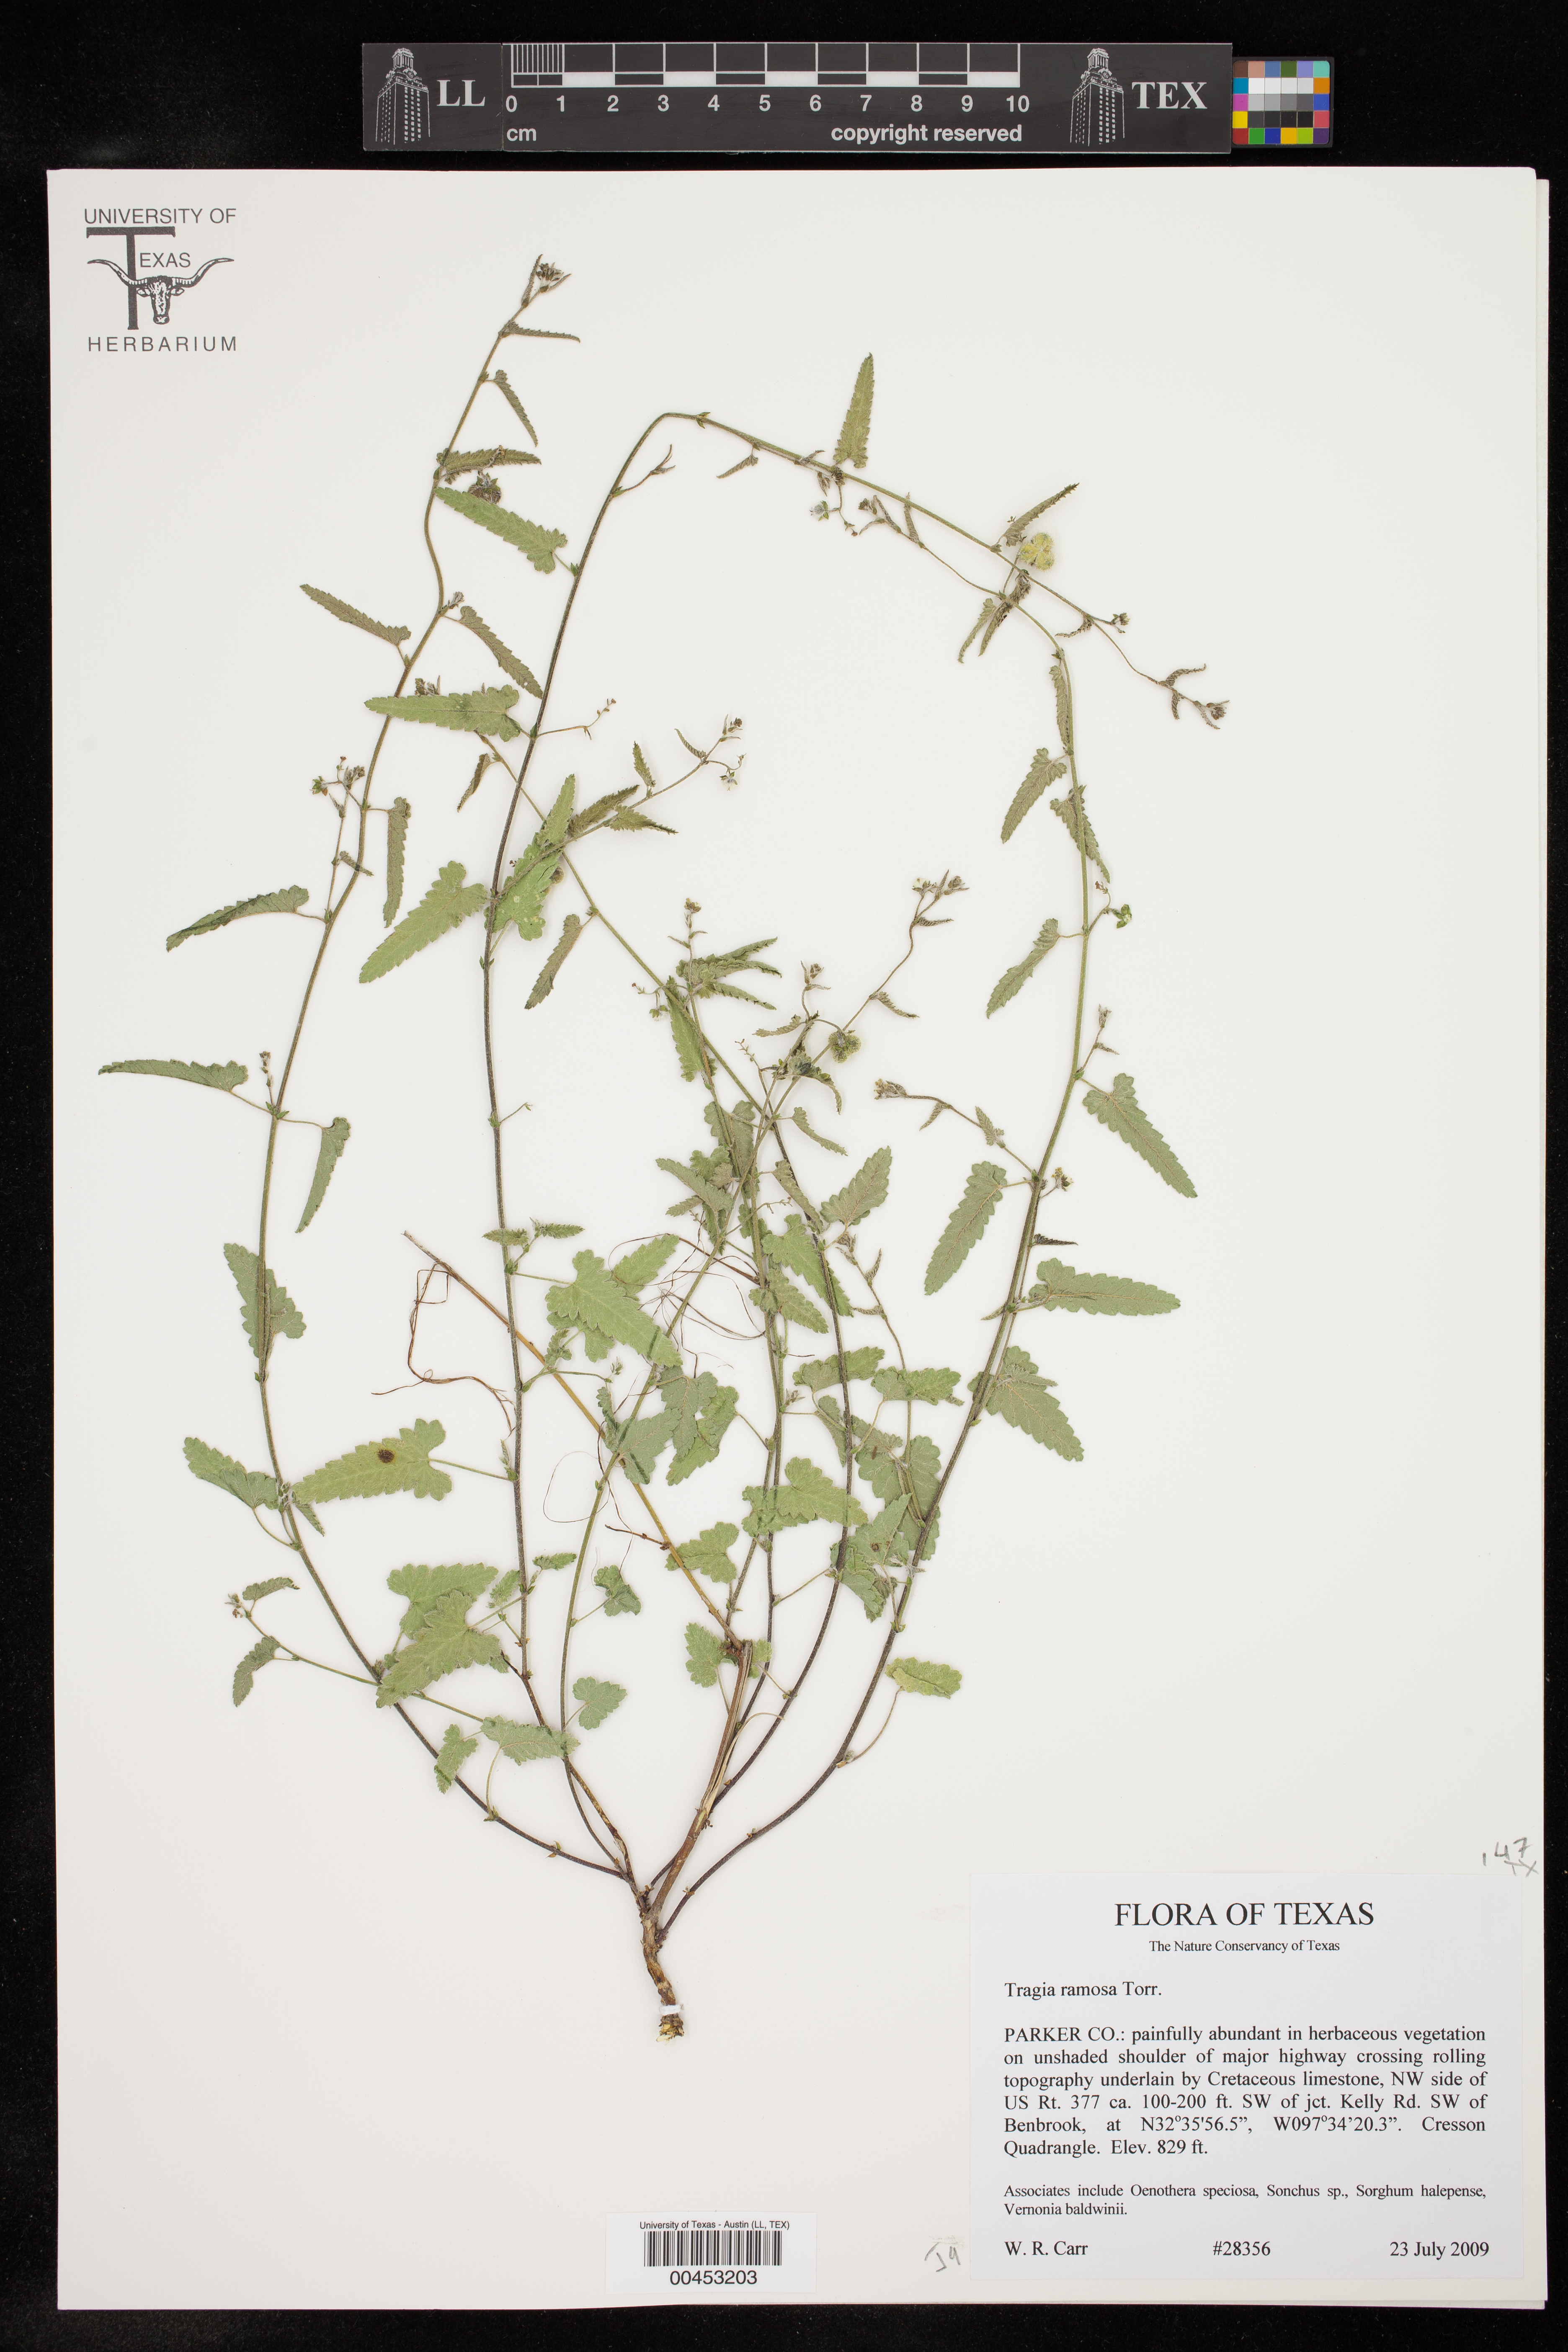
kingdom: Plantae
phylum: Tracheophyta
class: Magnoliopsida
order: Malpighiales
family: Euphorbiaceae
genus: Tragia
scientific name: Tragia ramosa
